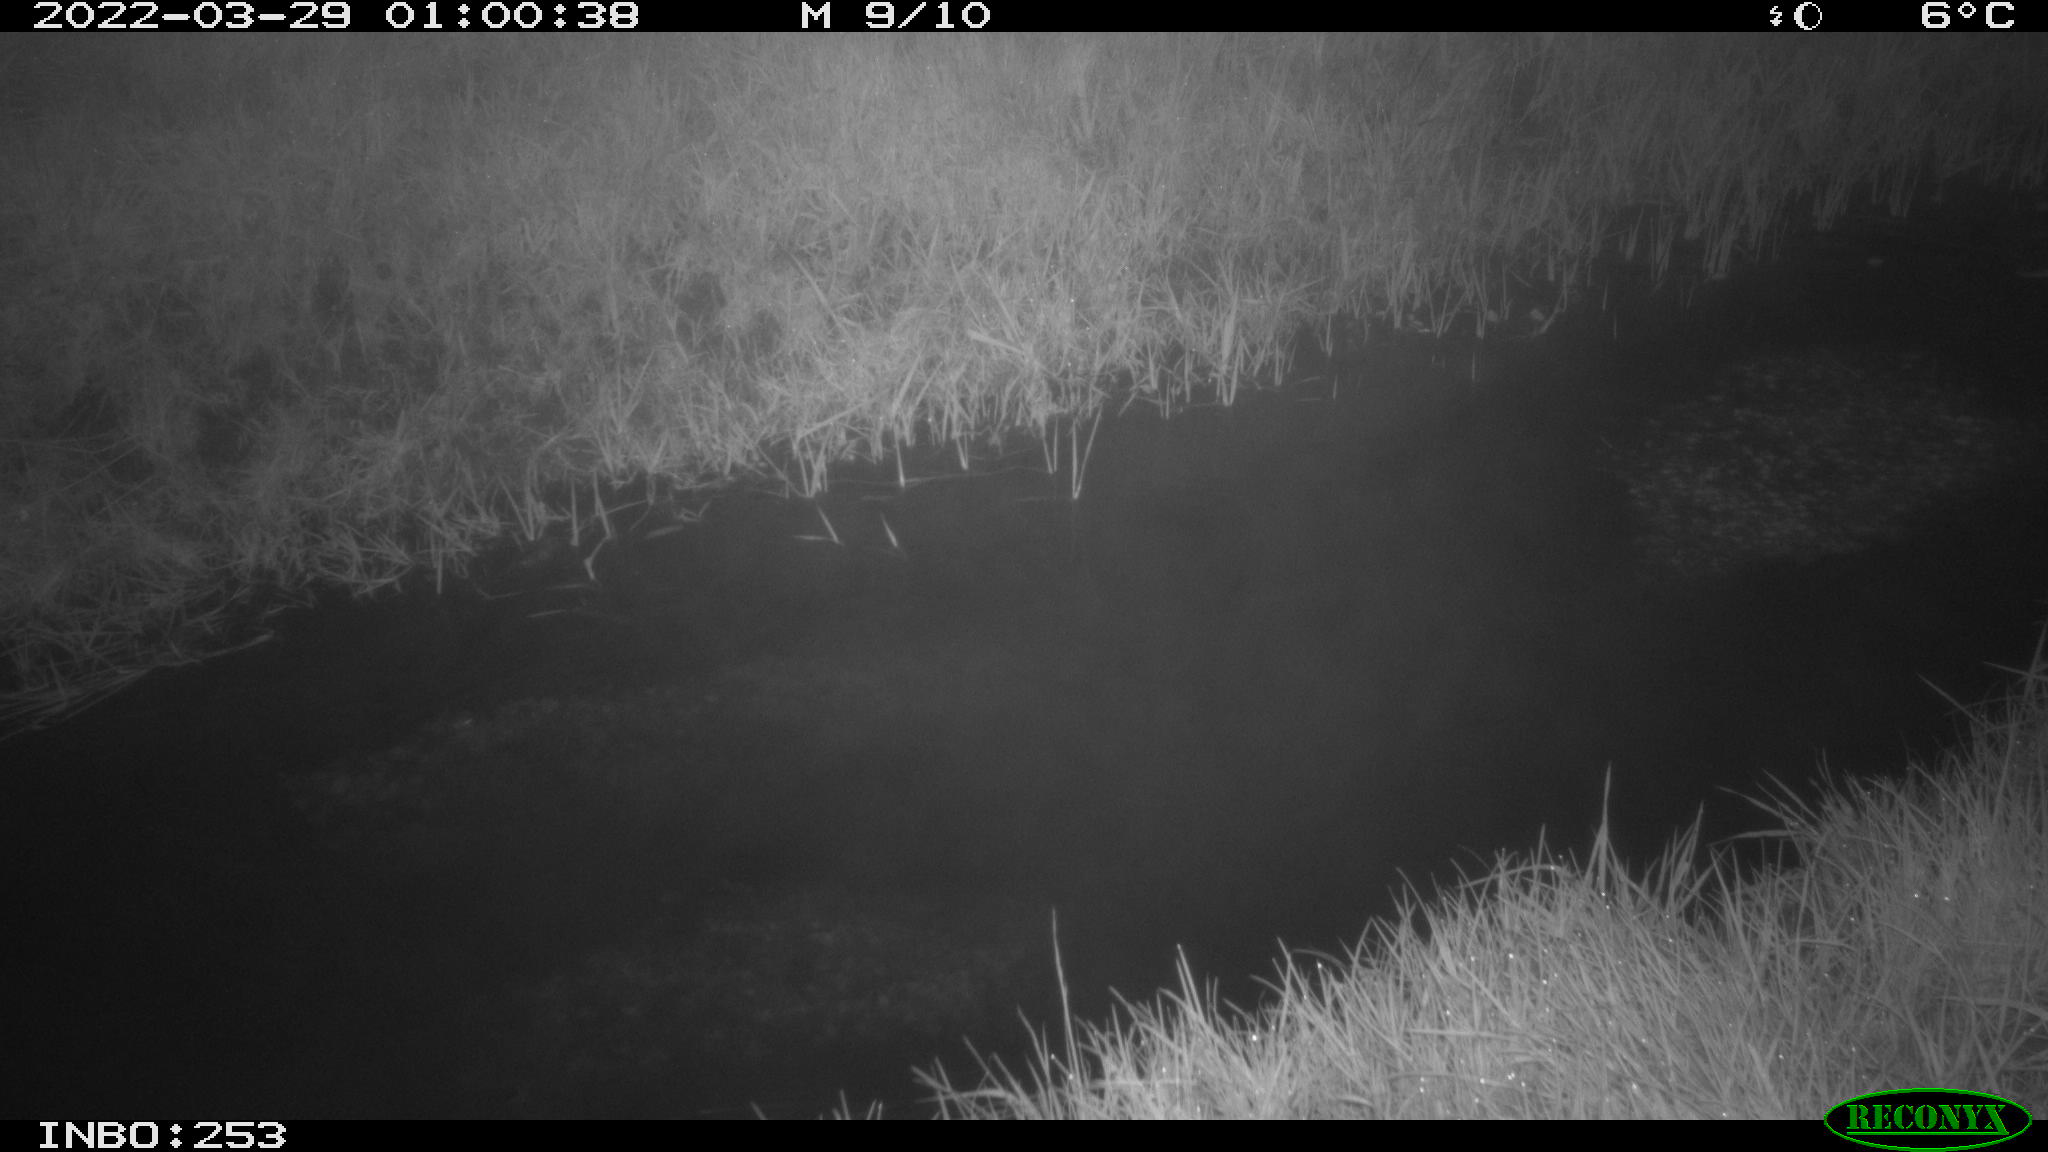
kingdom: Animalia
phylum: Chordata
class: Aves
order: Anseriformes
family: Anatidae
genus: Anas
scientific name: Anas platyrhynchos
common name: Mallard
